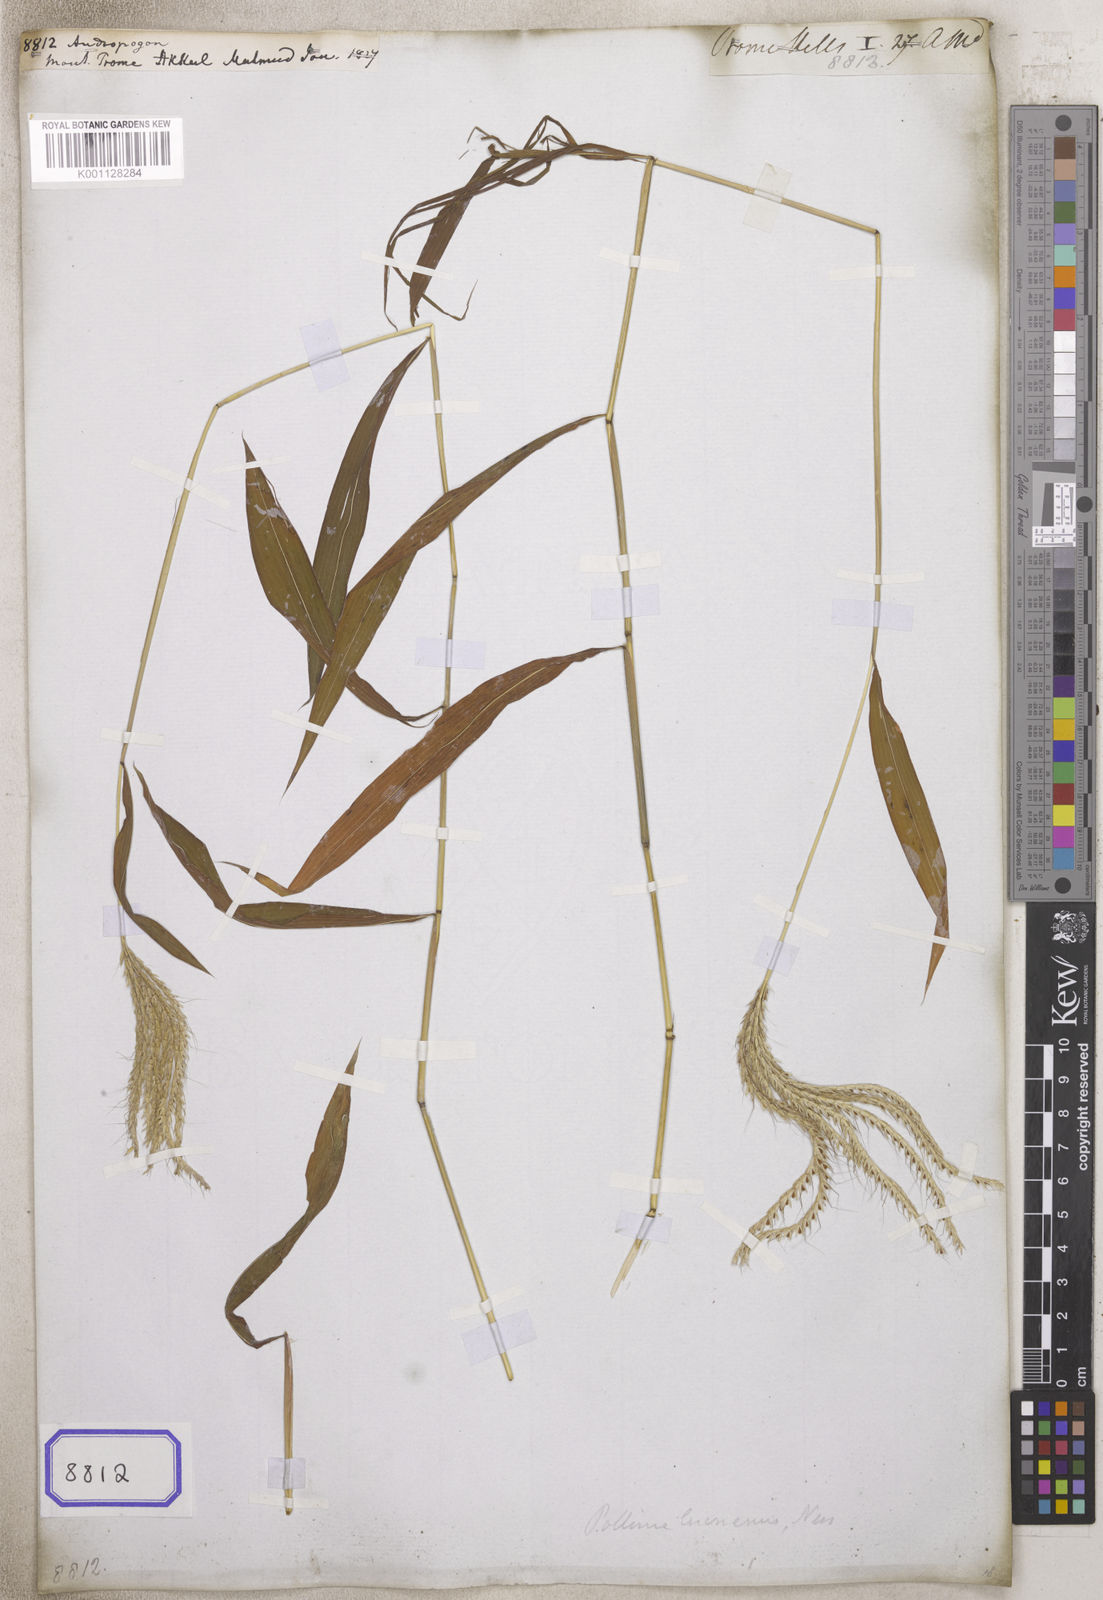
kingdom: Plantae
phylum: Tracheophyta
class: Liliopsida
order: Poales
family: Poaceae
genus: Andropogon
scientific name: Andropogon
